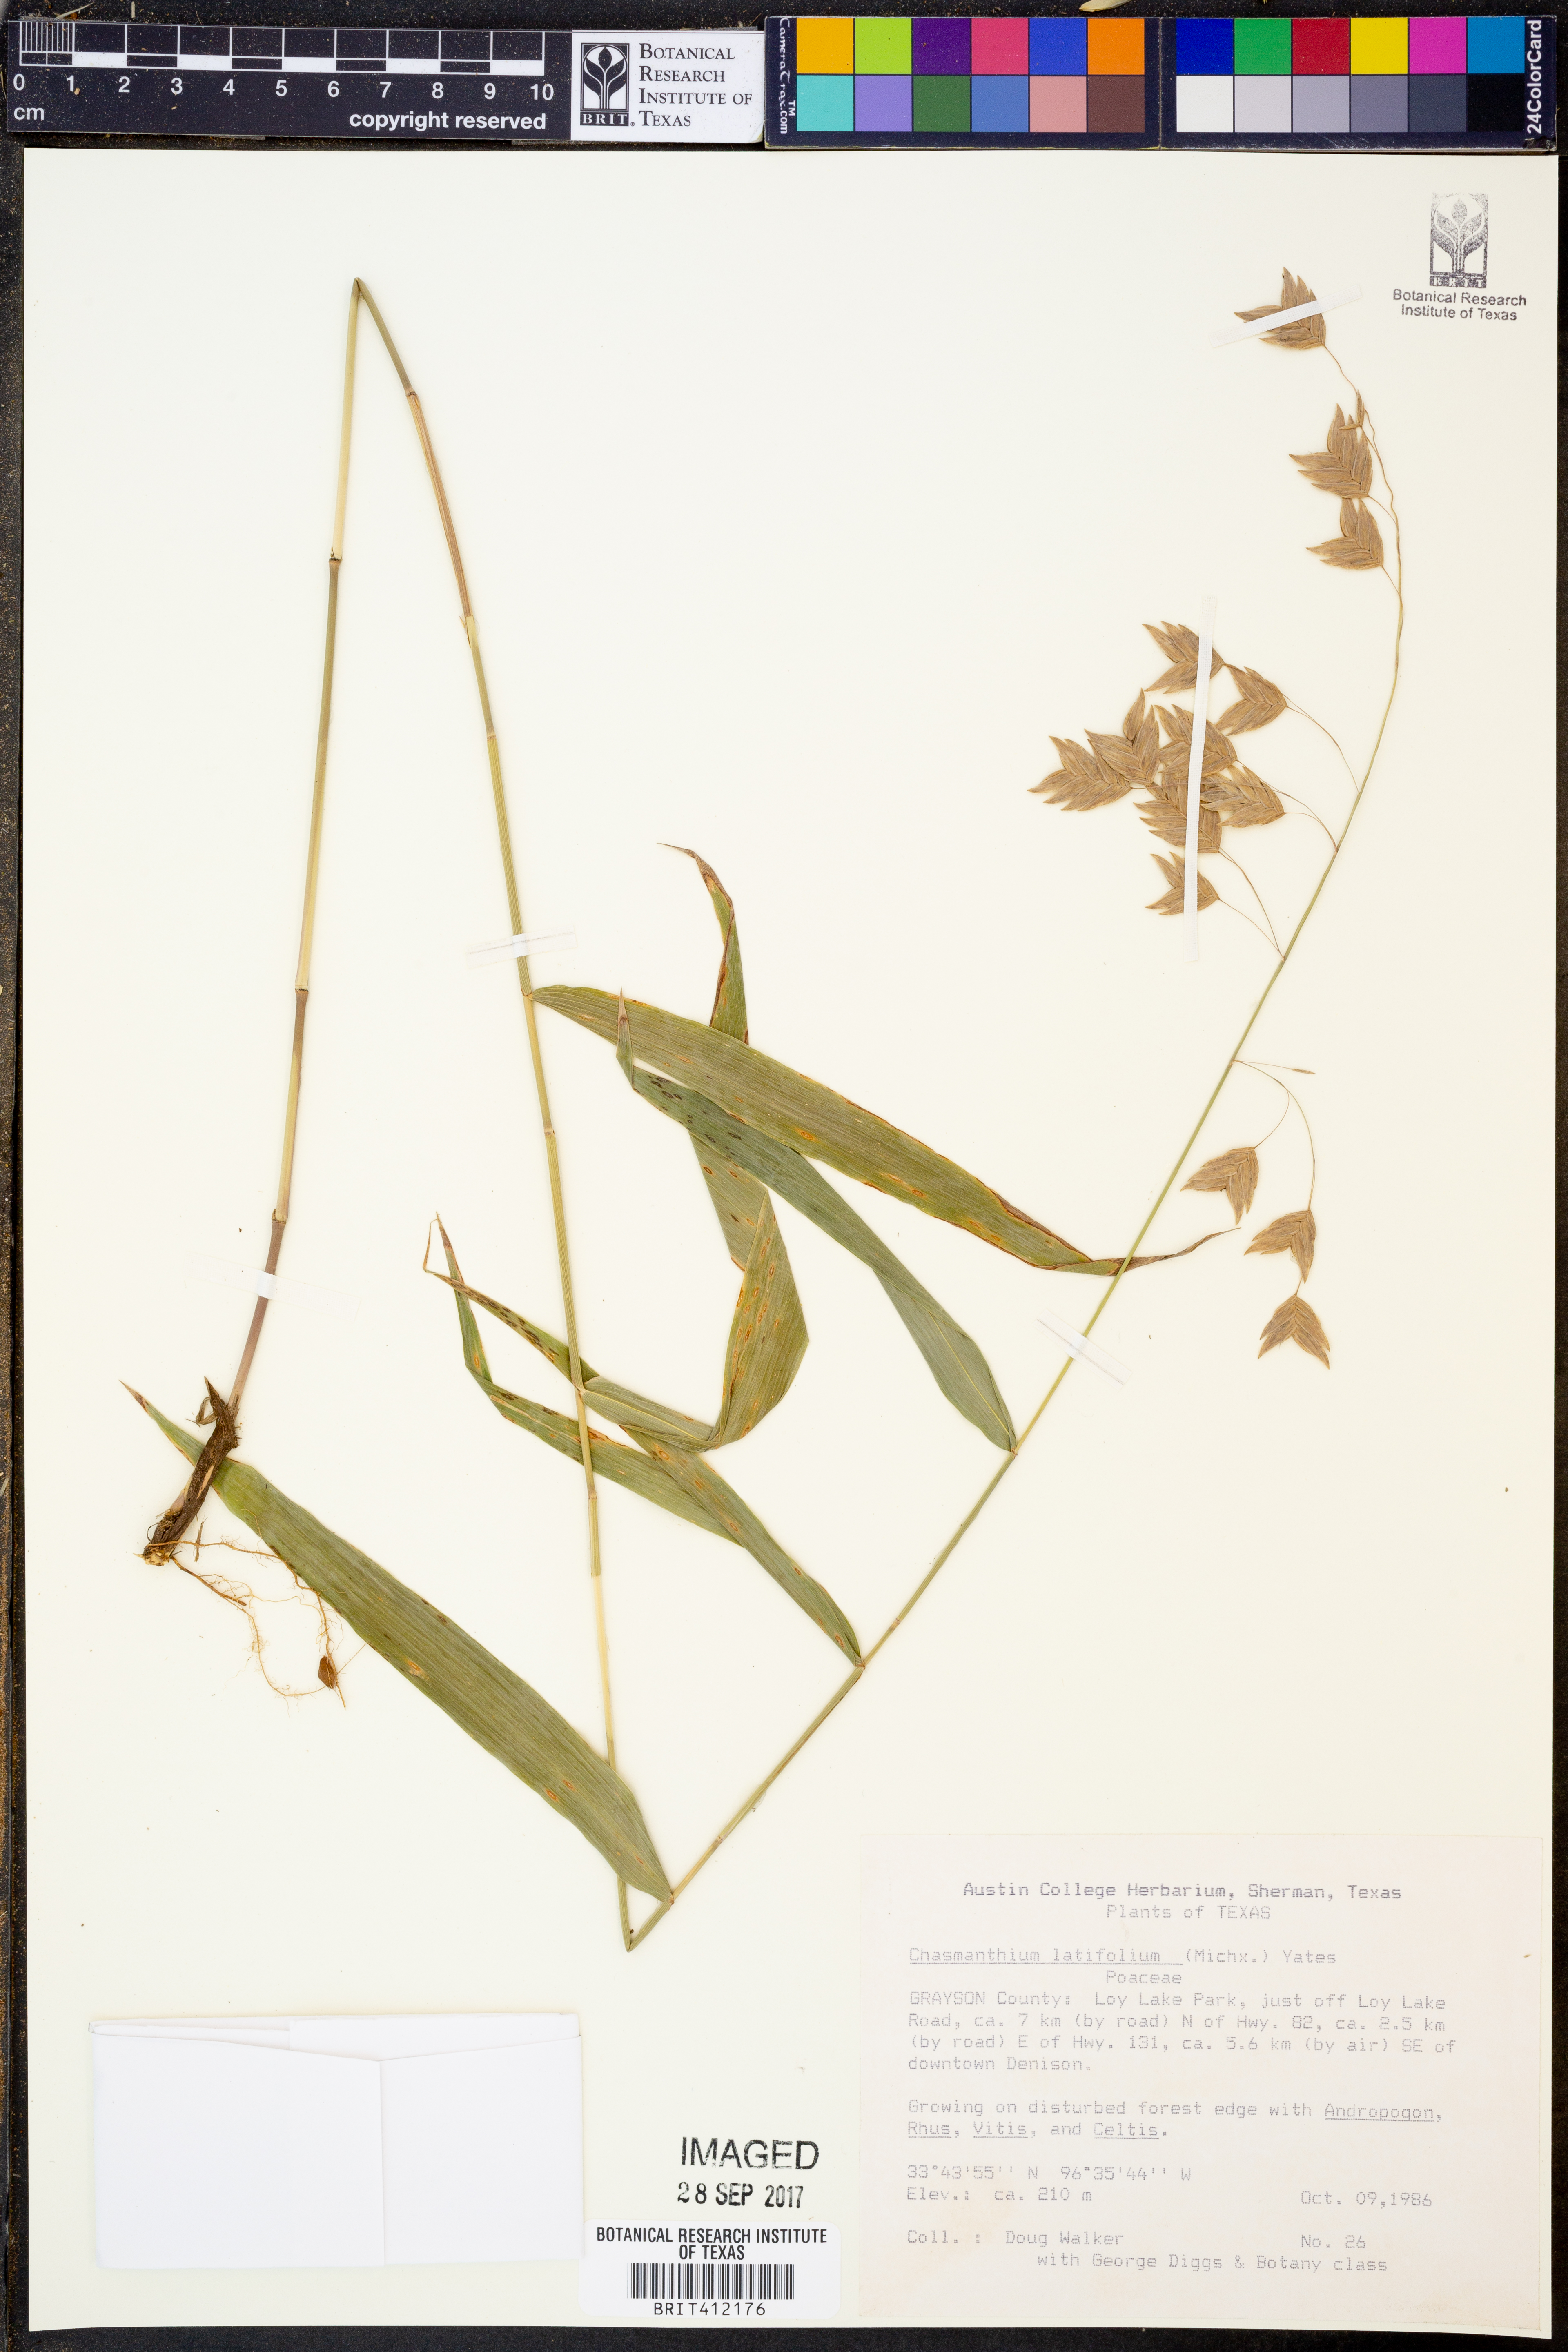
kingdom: Plantae
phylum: Tracheophyta
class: Liliopsida
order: Poales
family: Poaceae
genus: Chasmanthium
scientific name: Chasmanthium latifolium
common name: Broad-leaved chasmanthium
